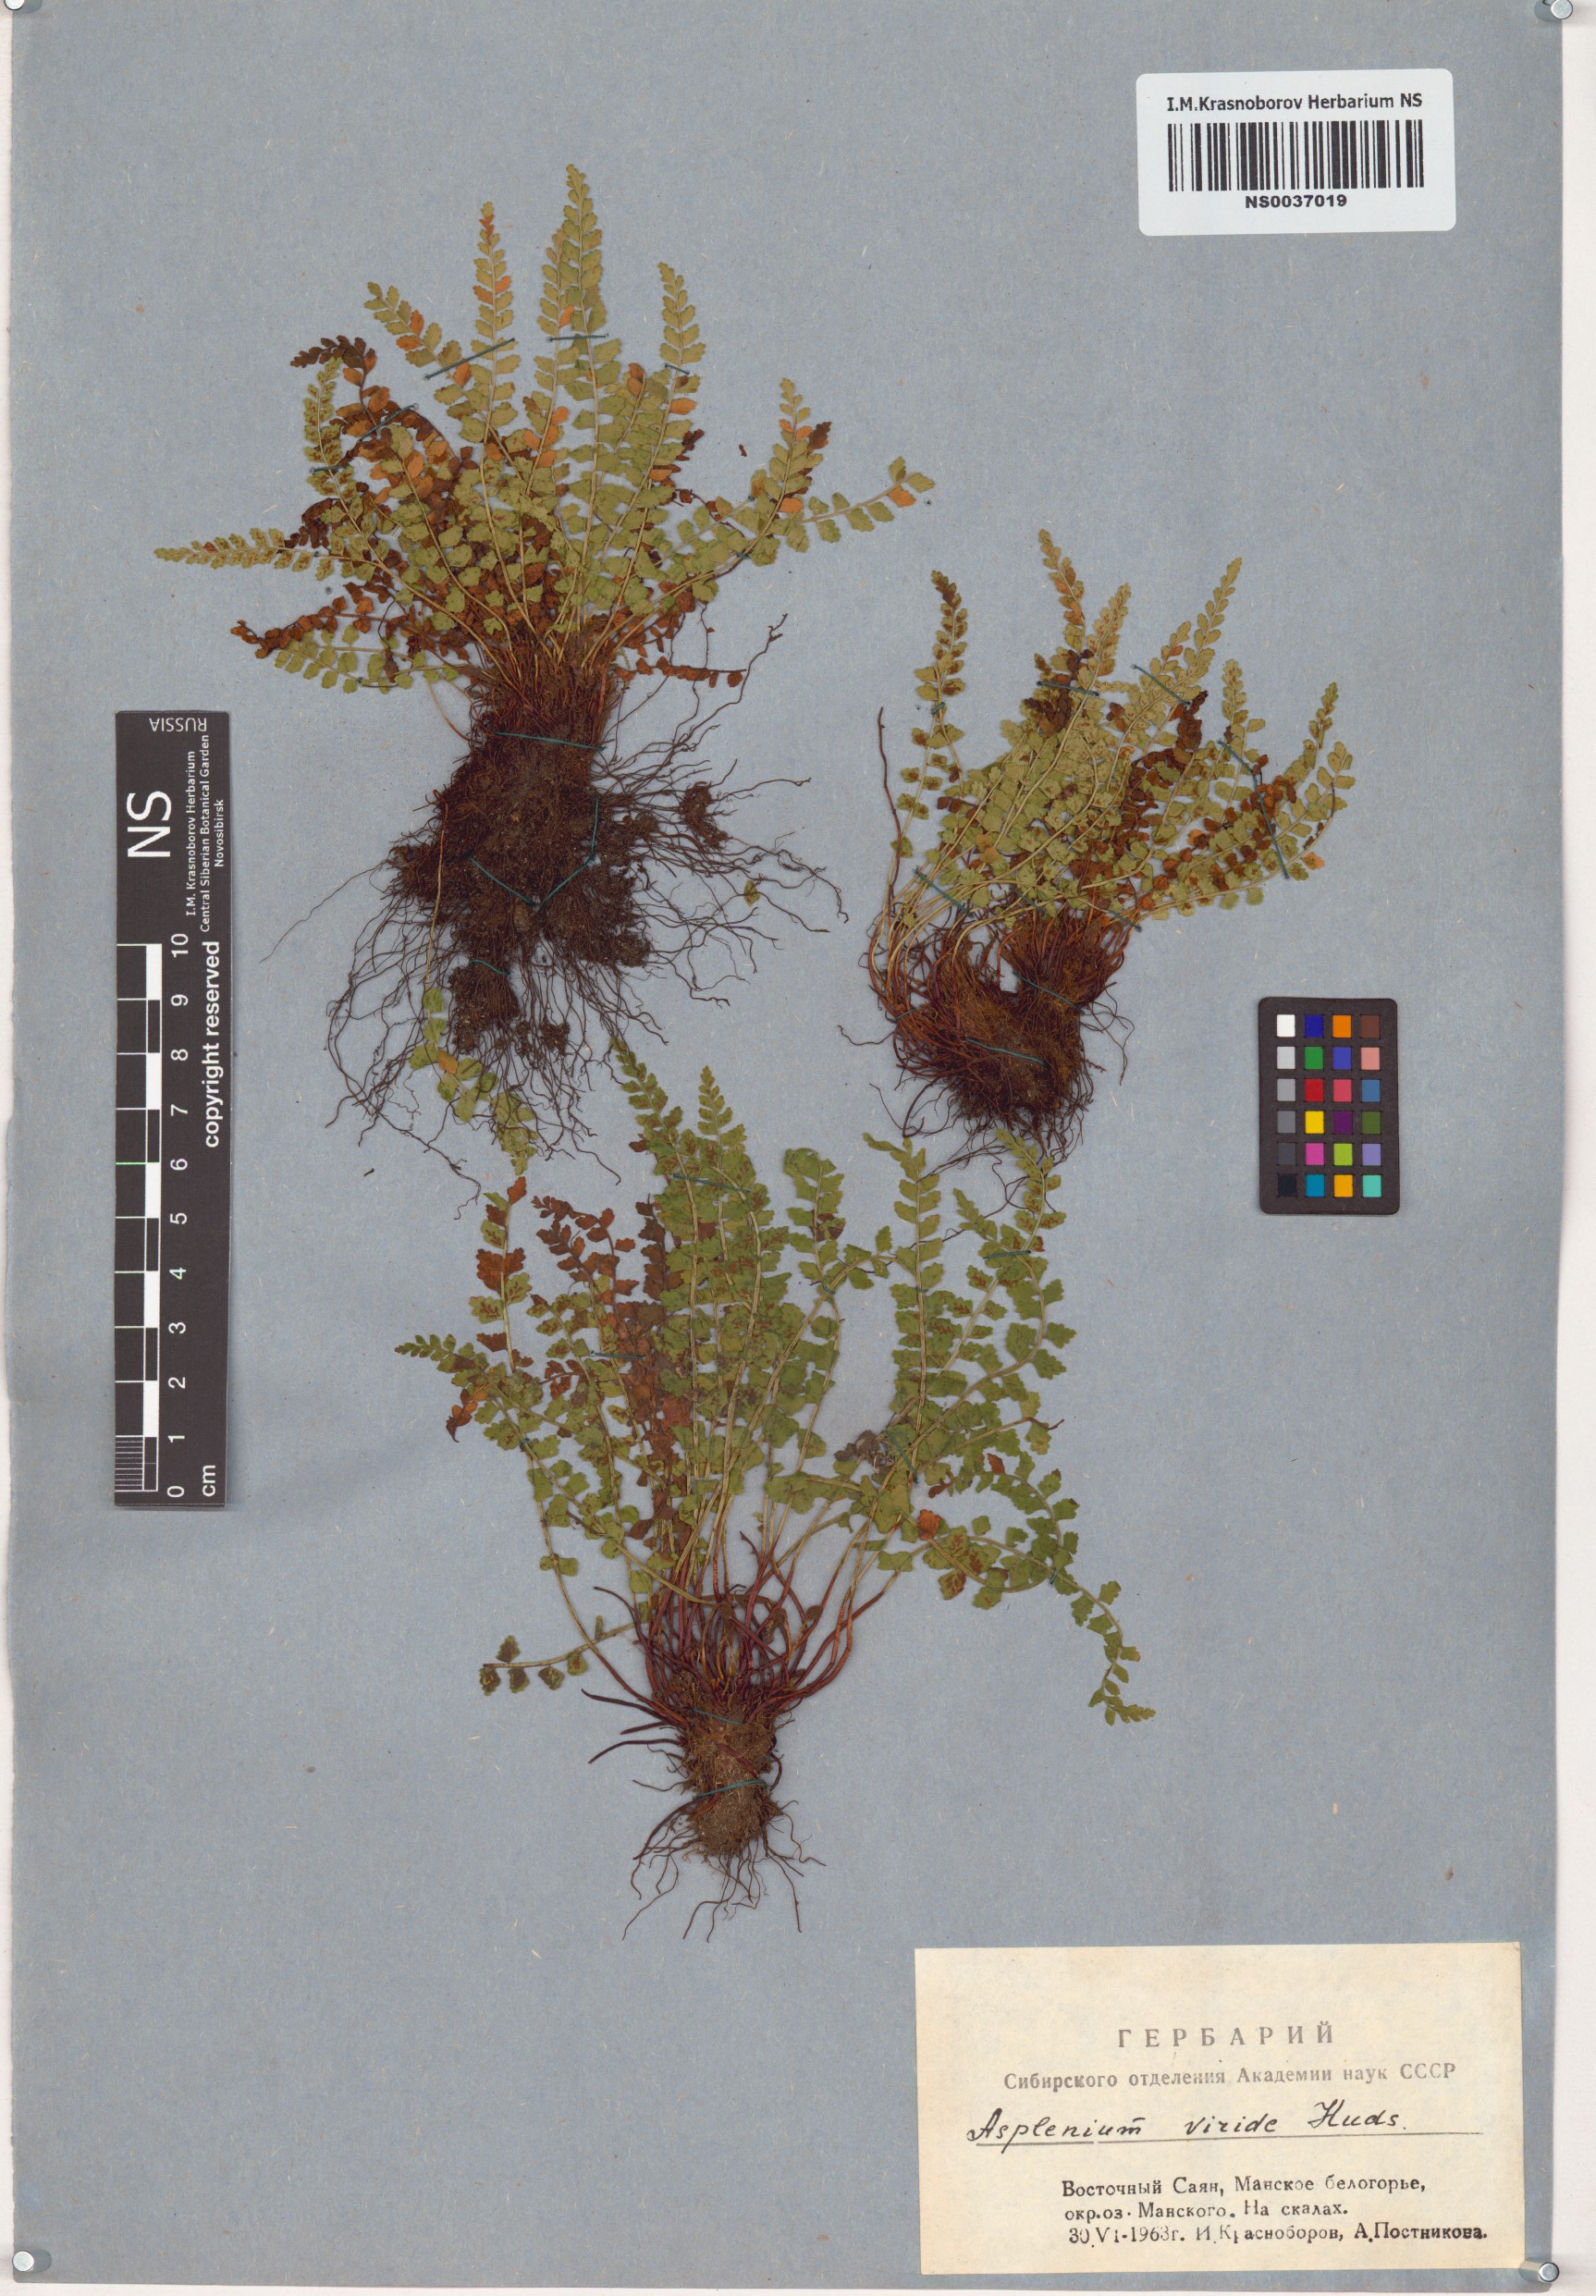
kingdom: Plantae
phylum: Tracheophyta
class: Polypodiopsida
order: Polypodiales
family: Aspleniaceae
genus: Asplenium
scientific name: Asplenium viride
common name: Green spleenwort
